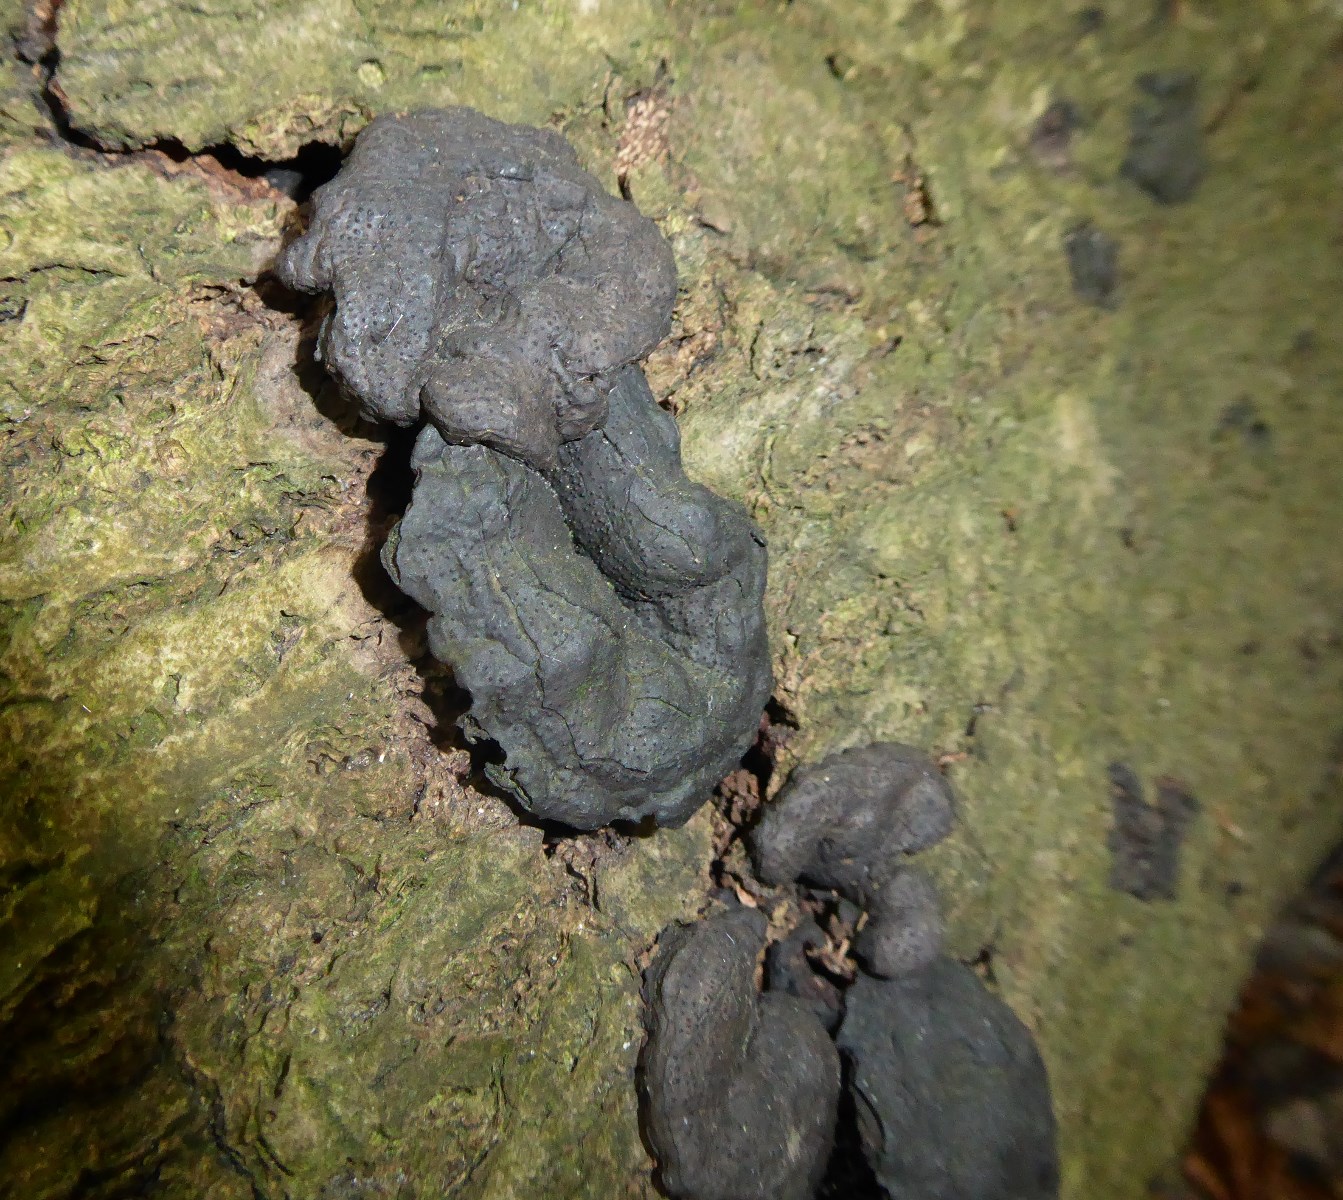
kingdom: Fungi
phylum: Ascomycota
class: Sordariomycetes
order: Xylariales
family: Xylariaceae
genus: Kretzschmaria
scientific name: Kretzschmaria deusta
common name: stor kulsvamp
